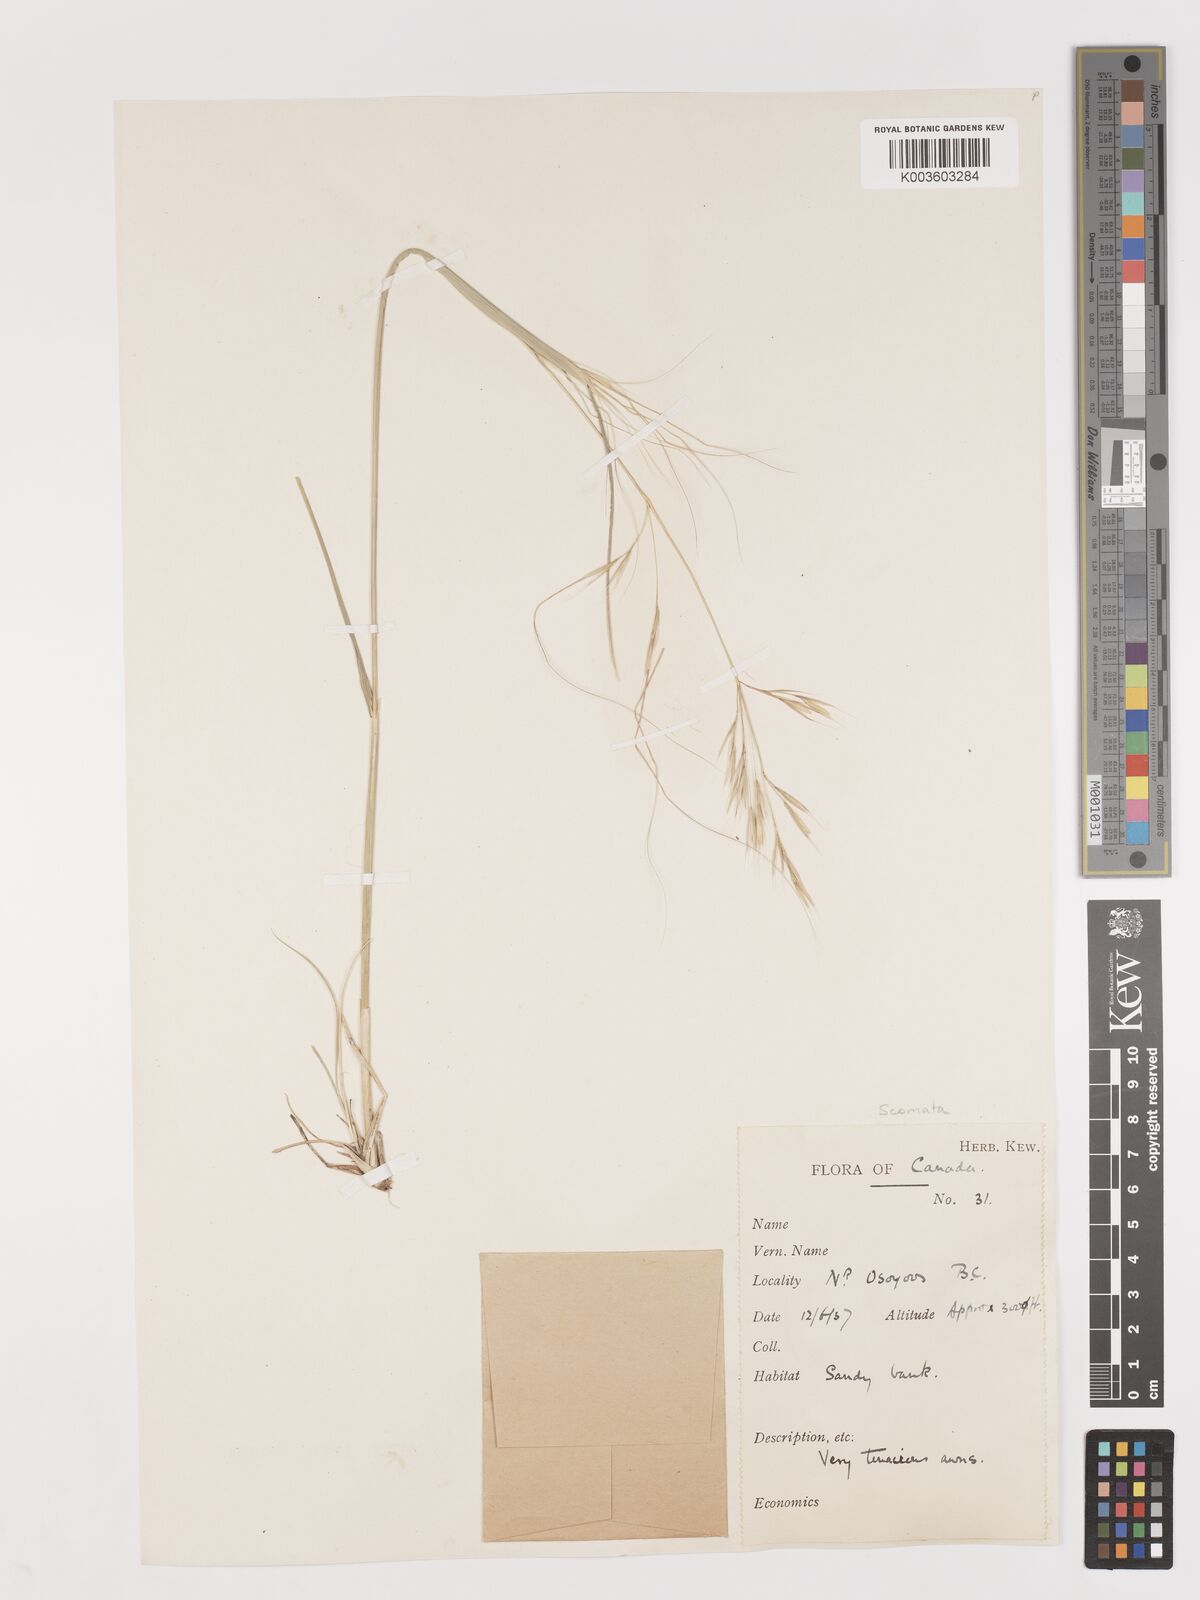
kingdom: Plantae
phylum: Tracheophyta
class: Liliopsida
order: Poales
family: Poaceae
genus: Stipa
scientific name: Stipa
